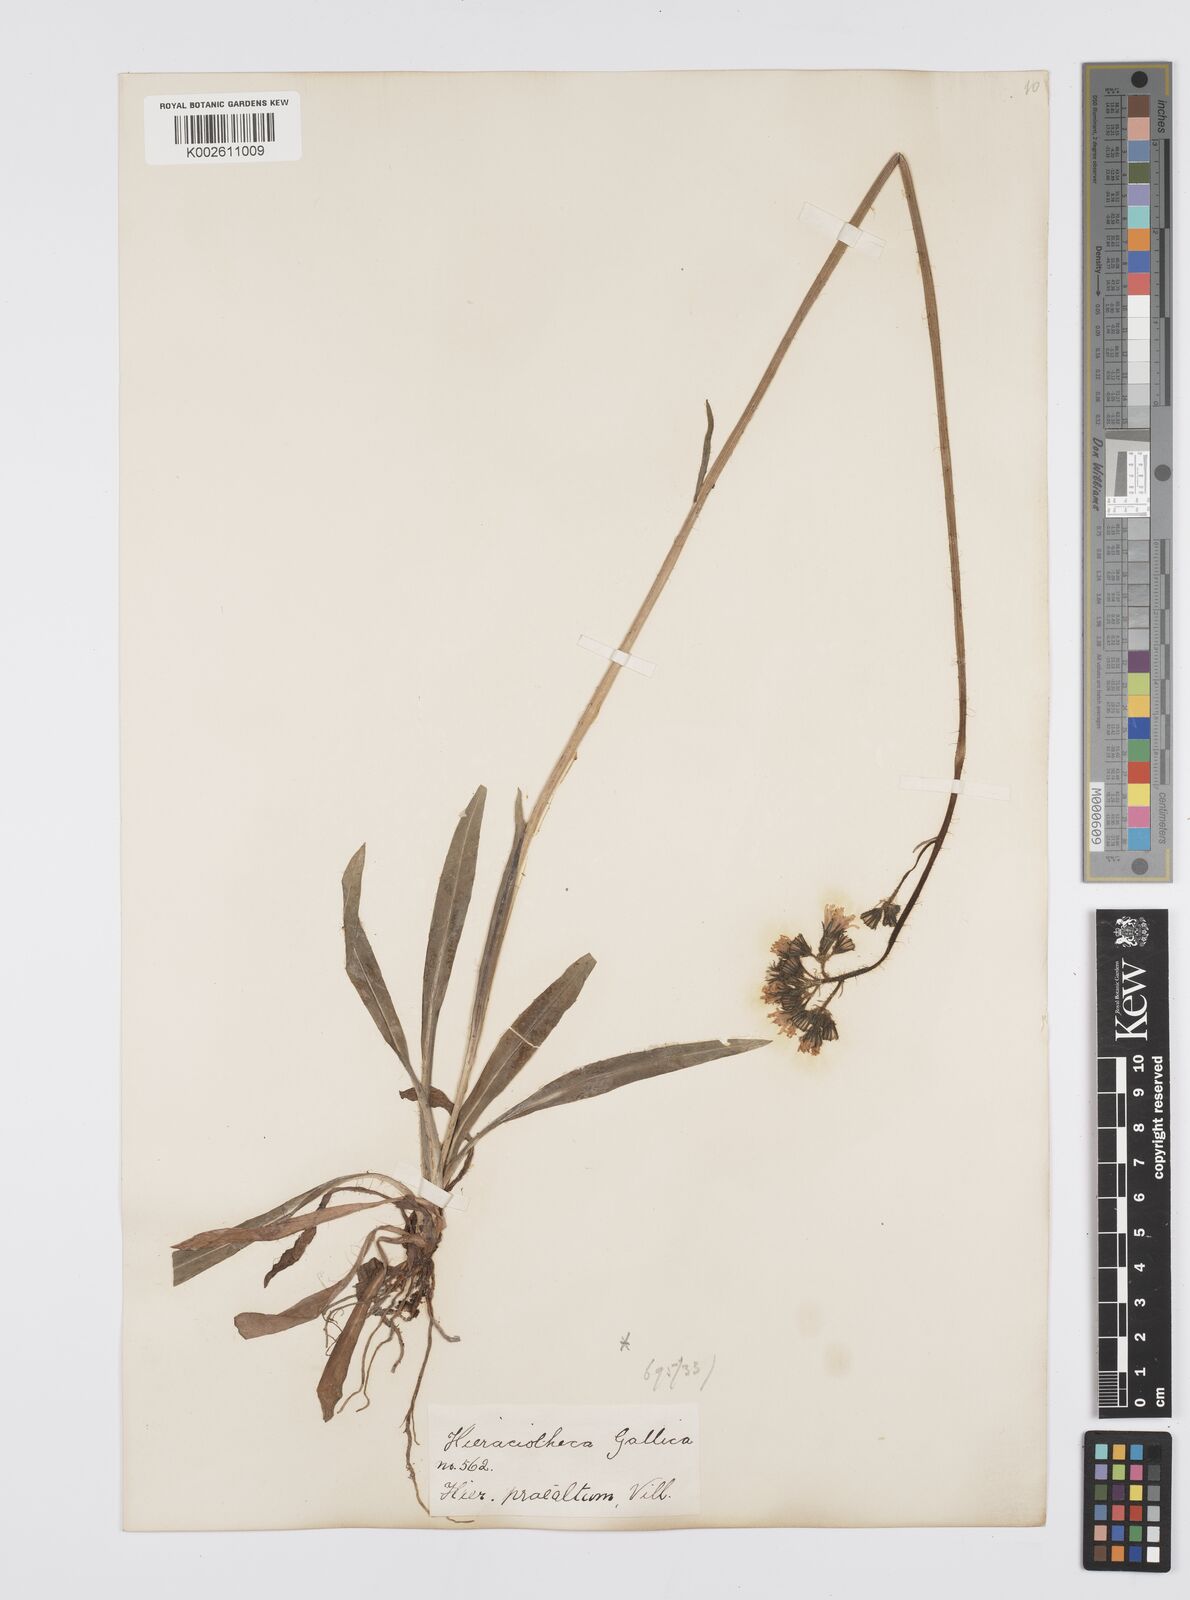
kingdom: Plantae
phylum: Tracheophyta
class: Magnoliopsida
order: Asterales
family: Asteraceae
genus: Pilosella
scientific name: Pilosella piloselloides
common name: Glaucous king-devil
